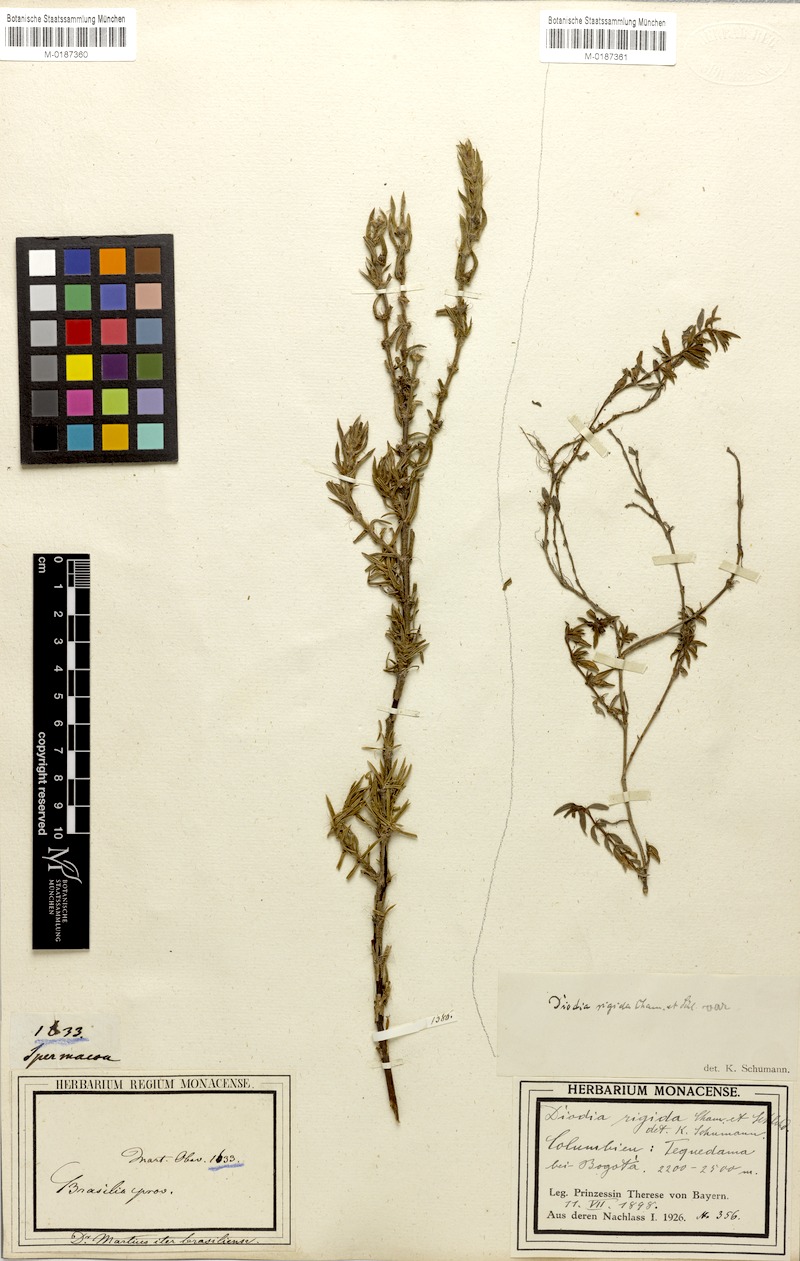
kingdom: Plantae
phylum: Tracheophyta
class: Magnoliopsida
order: Gentianales
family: Rubiaceae
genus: Hexasepalum
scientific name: Hexasepalum apiculatum
